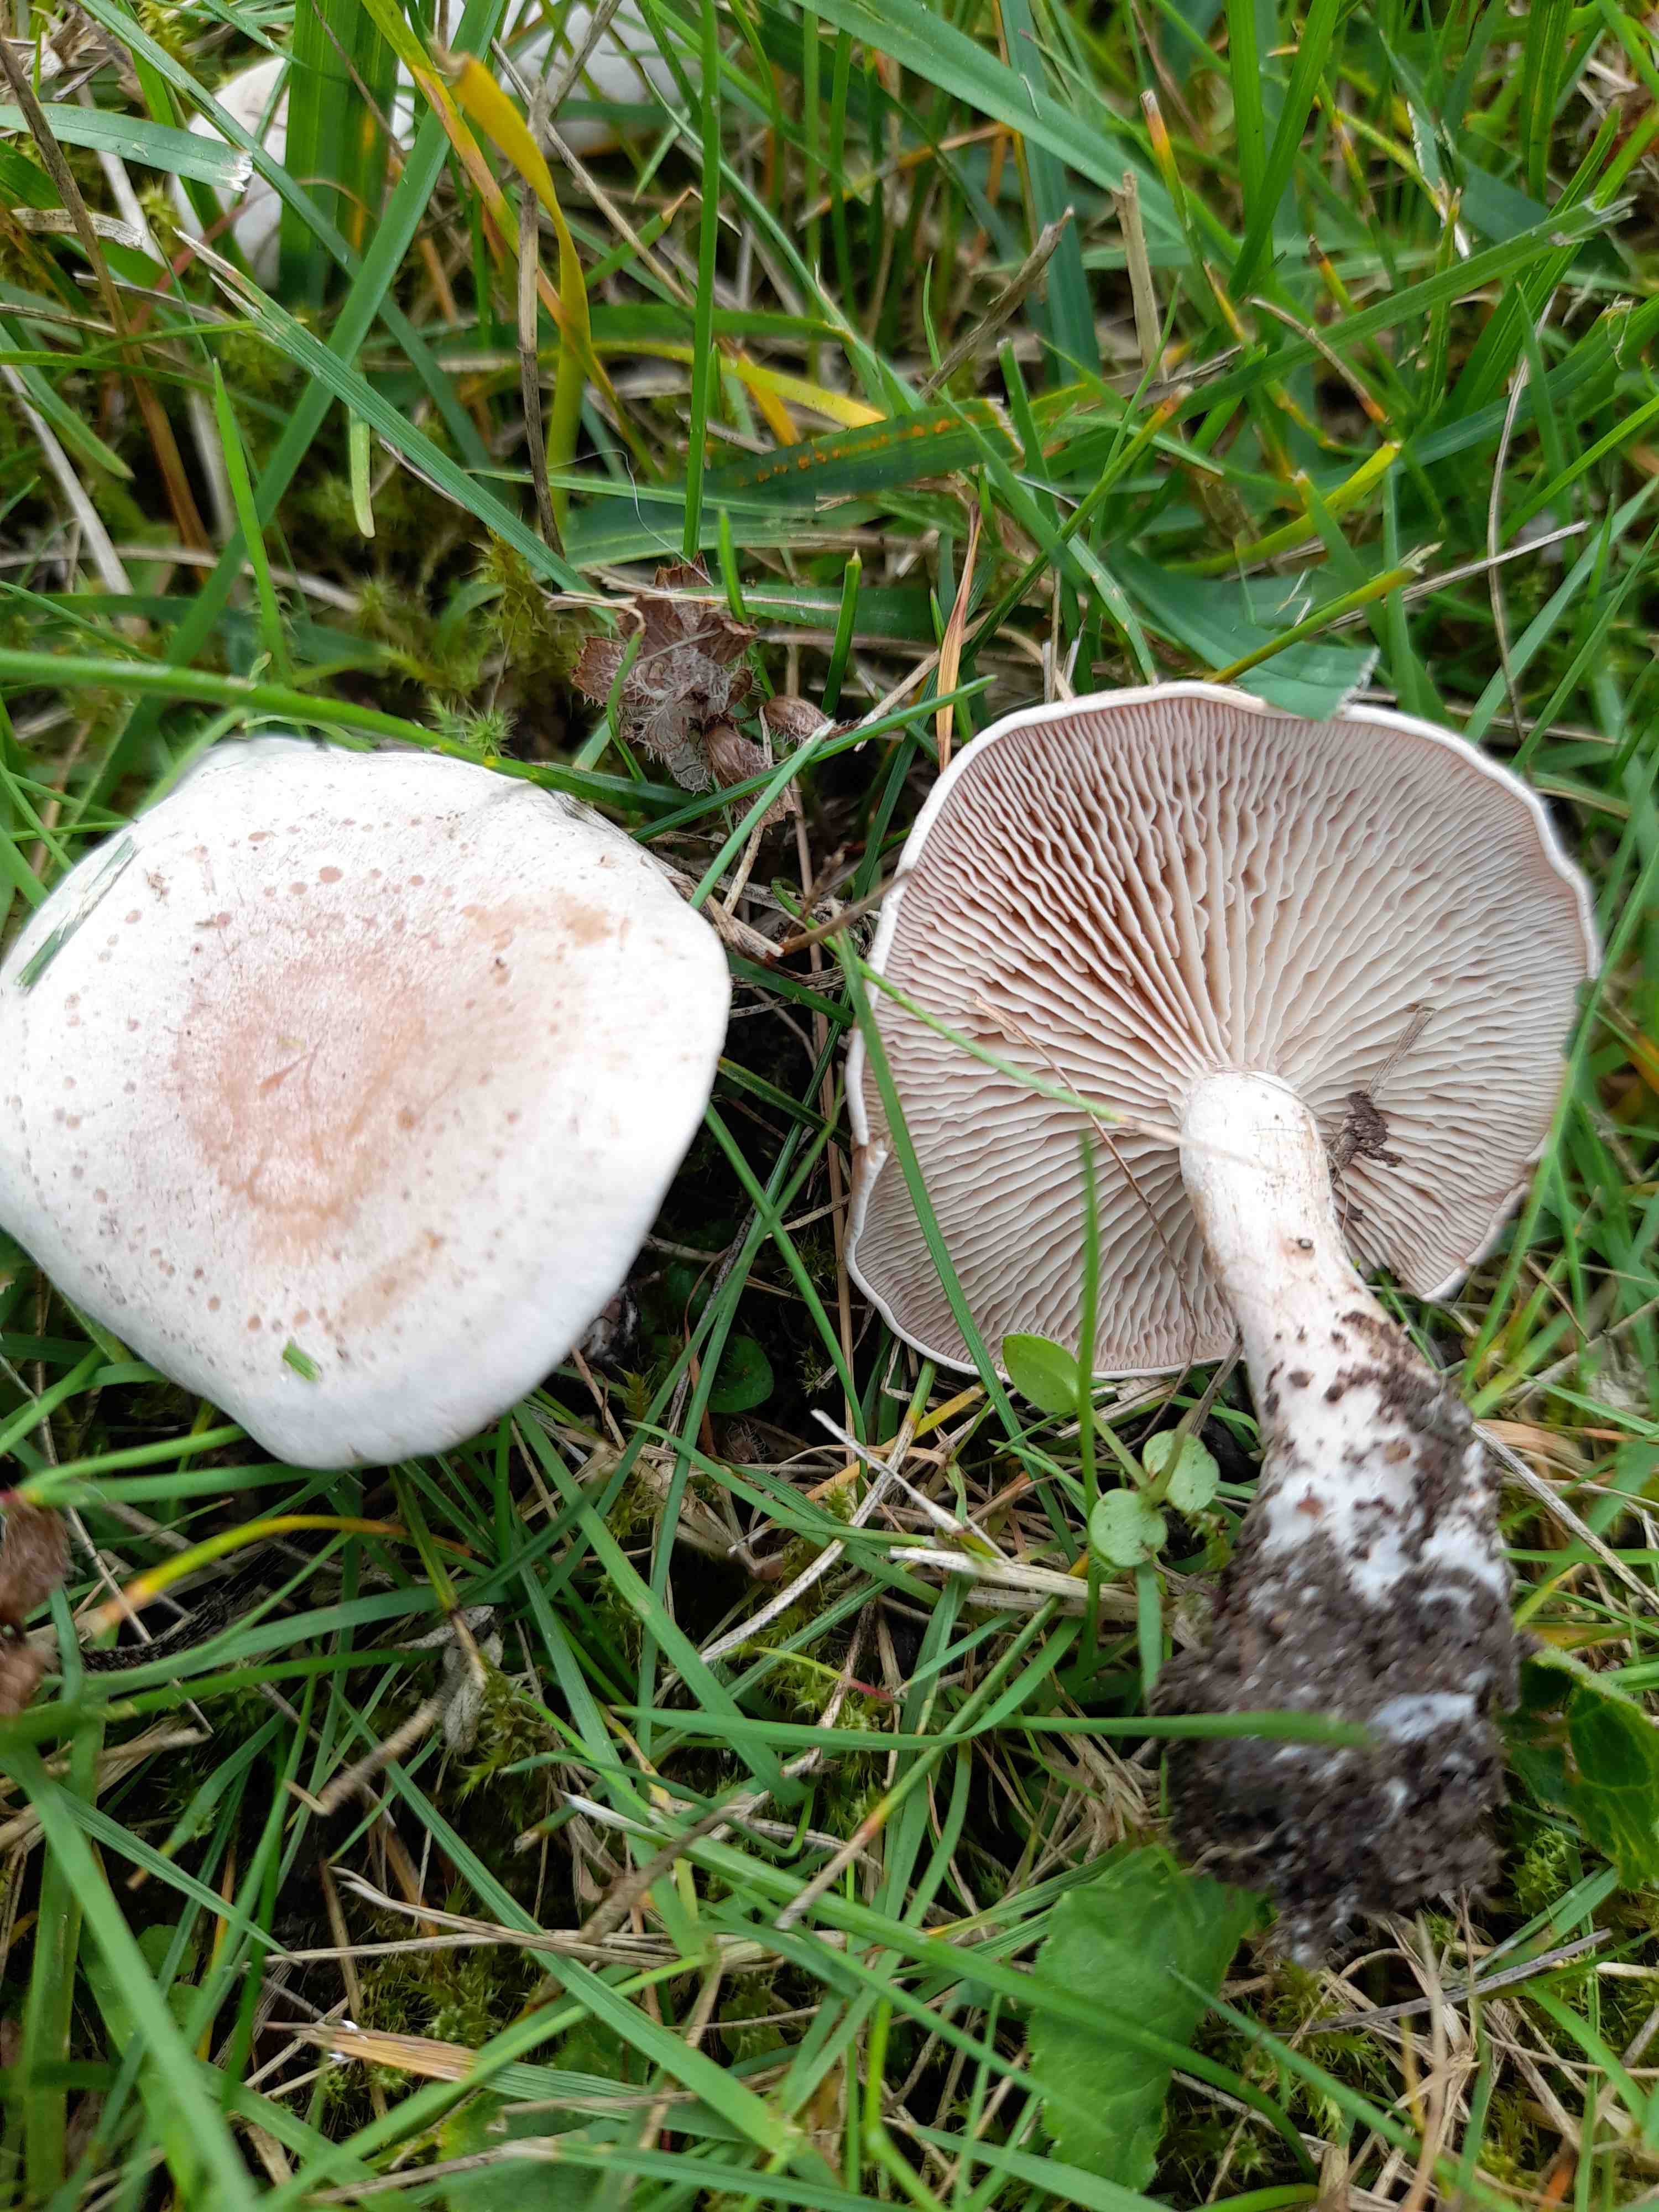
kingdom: Fungi
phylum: Basidiomycota
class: Agaricomycetes
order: Agaricales
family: Tricholomataceae
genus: Clitocybe
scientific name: Clitocybe rivulosa
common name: eng-tragthat
